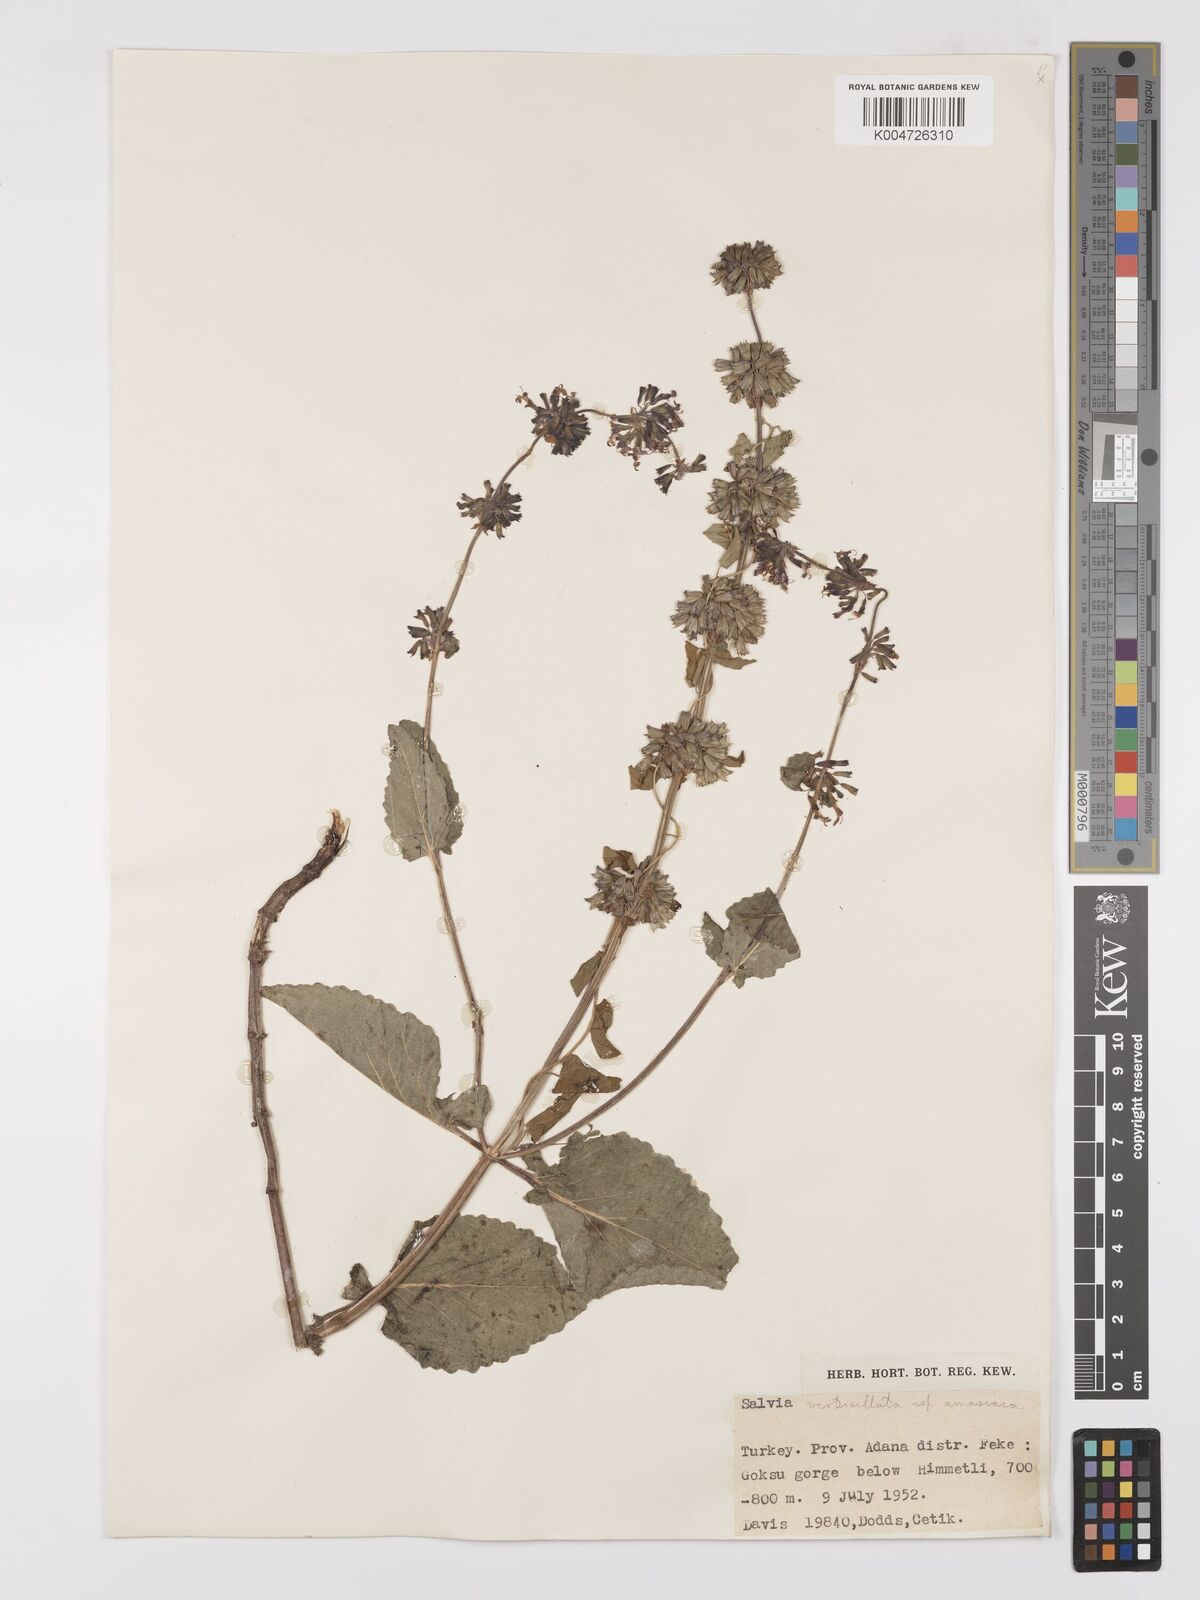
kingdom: Plantae
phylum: Tracheophyta
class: Magnoliopsida
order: Lamiales
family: Lamiaceae
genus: Salvia
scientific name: Salvia verticillata
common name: Whorled clary
